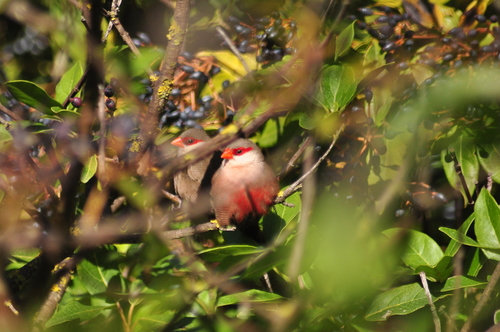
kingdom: Animalia
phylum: Chordata
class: Aves
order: Passeriformes
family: Estrildidae
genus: Estrilda
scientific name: Estrilda astrild
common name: Common waxbill
